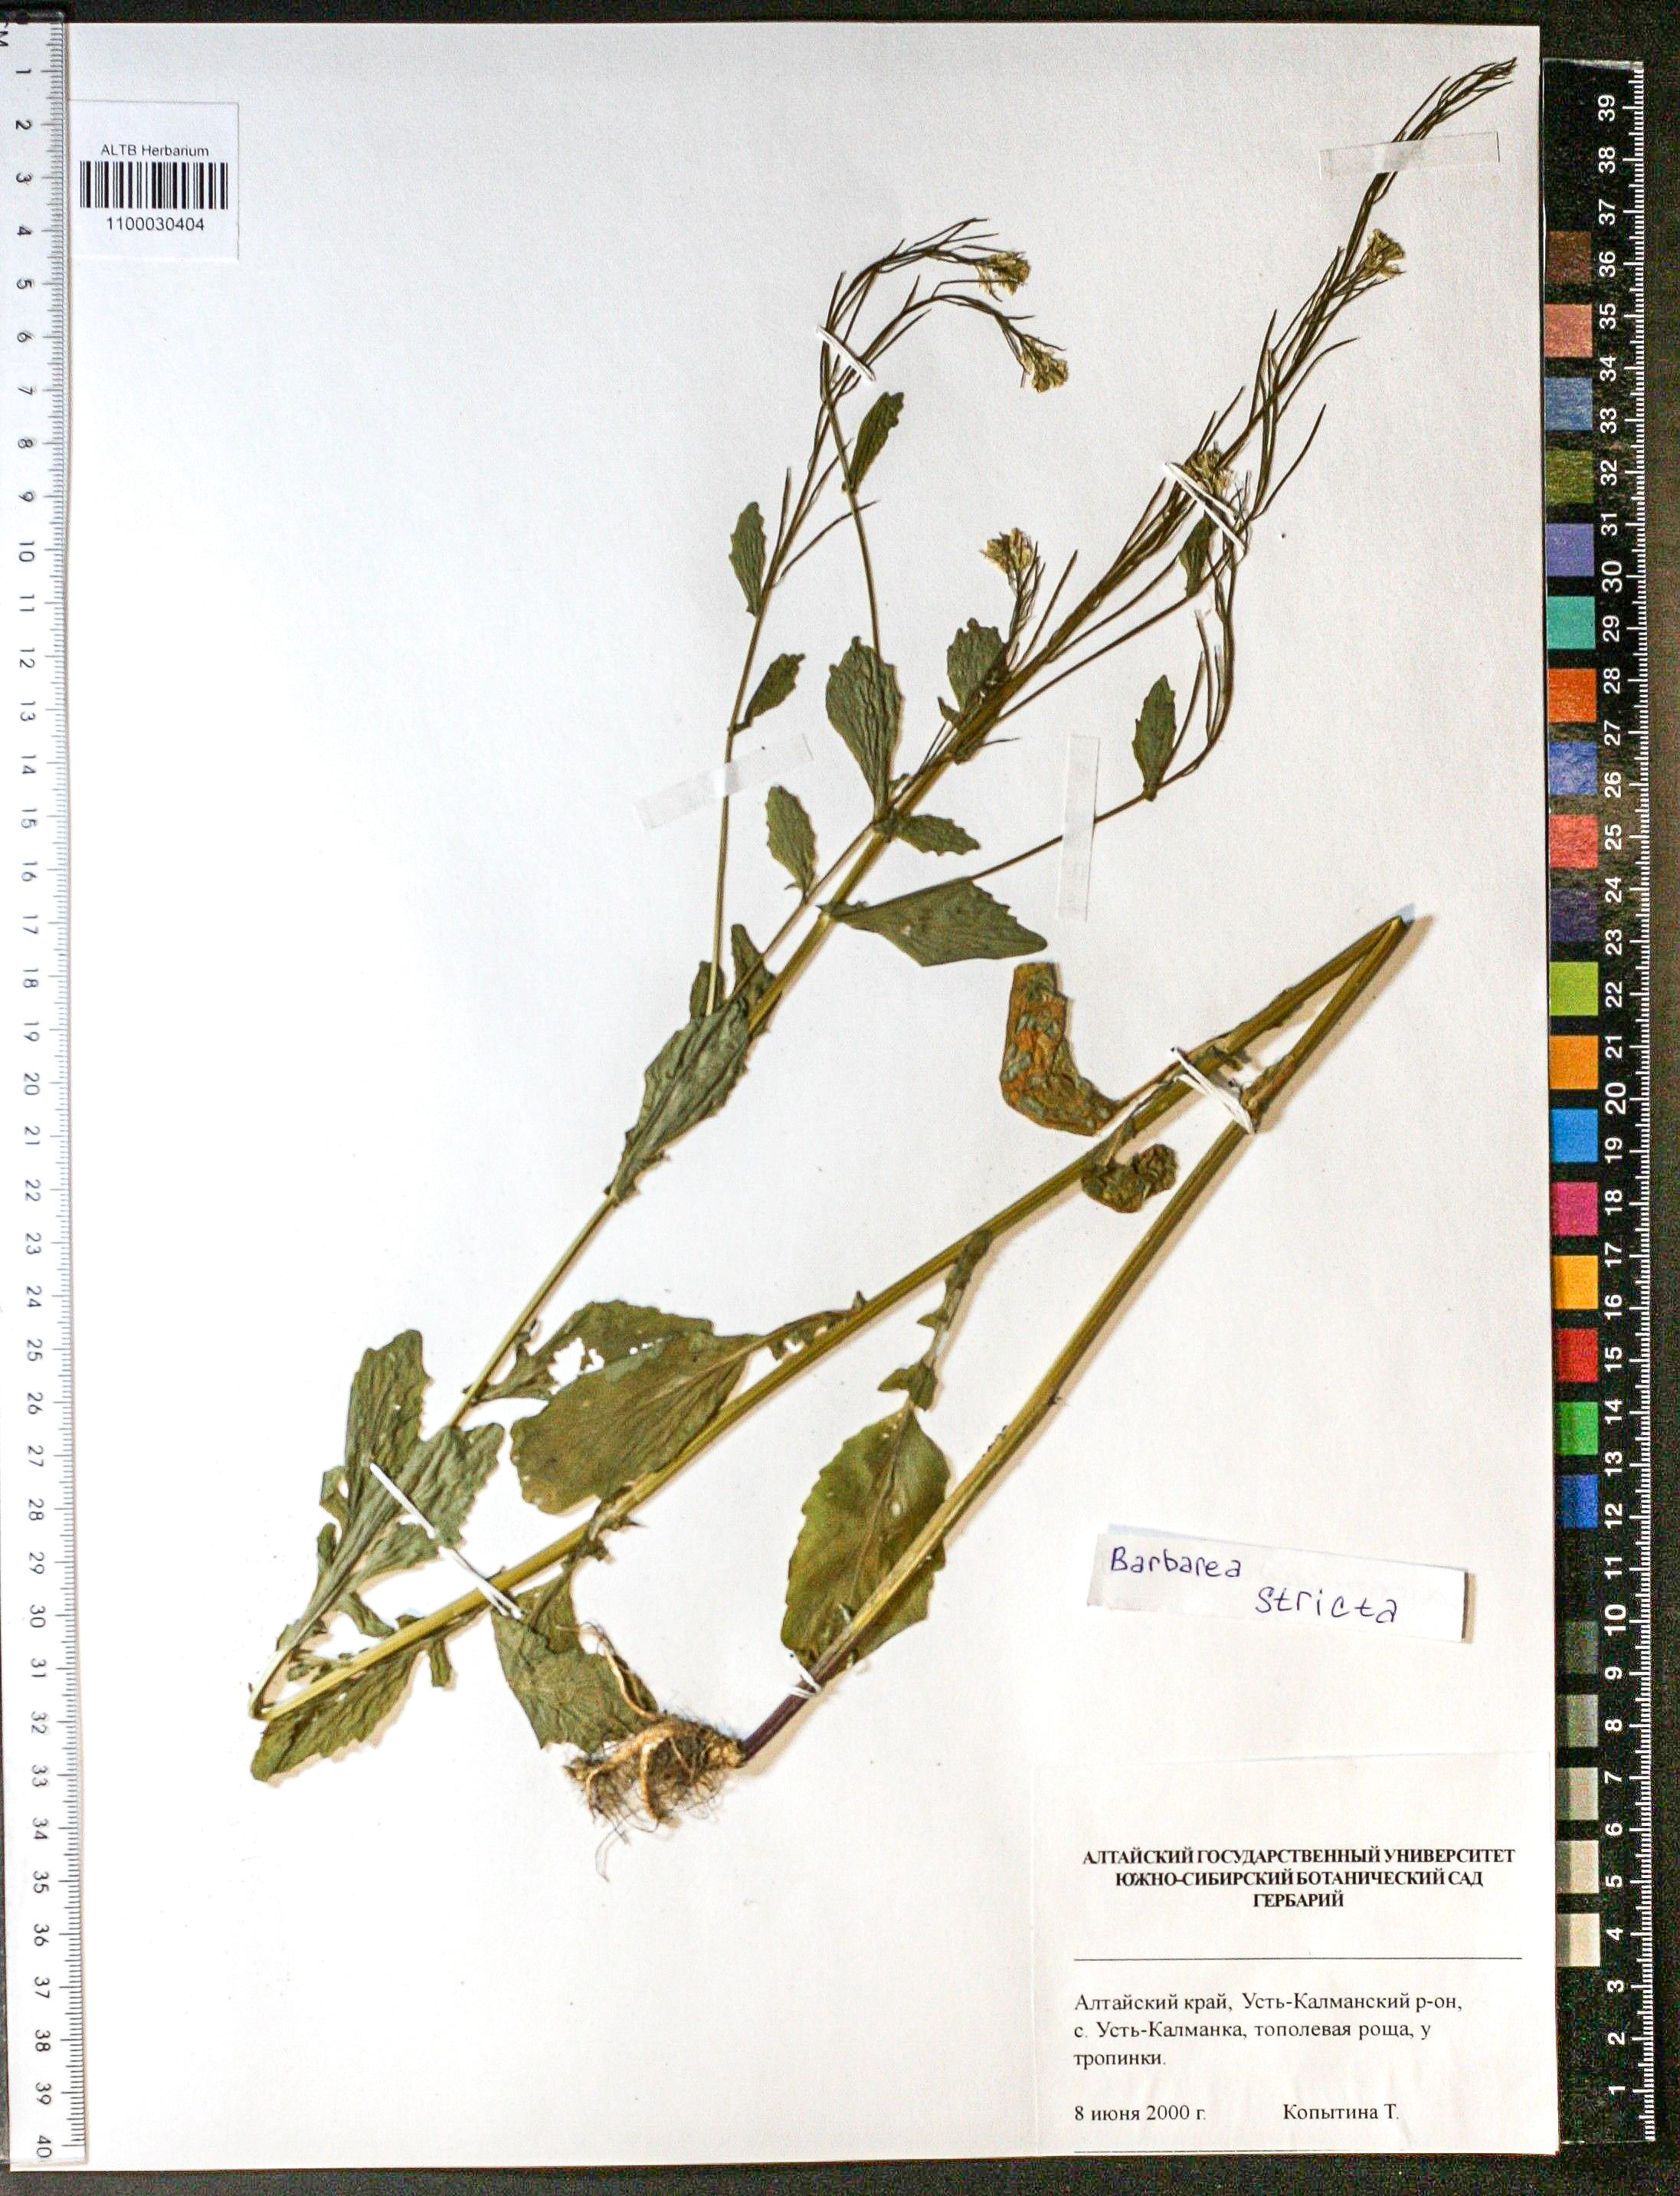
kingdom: Plantae
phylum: Tracheophyta
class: Magnoliopsida
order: Brassicales
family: Brassicaceae
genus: Barbarea
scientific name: Barbarea vulgaris
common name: Cressy-greens
